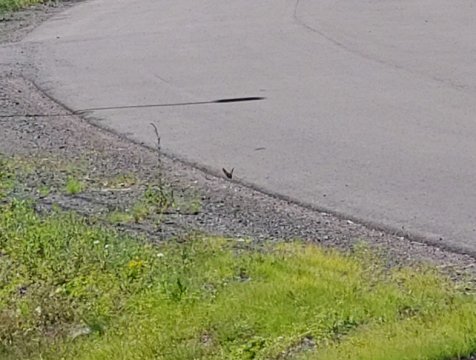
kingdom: Animalia
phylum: Arthropoda
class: Insecta
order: Lepidoptera
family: Nymphalidae
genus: Danaus
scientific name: Danaus plexippus
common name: Monarch
